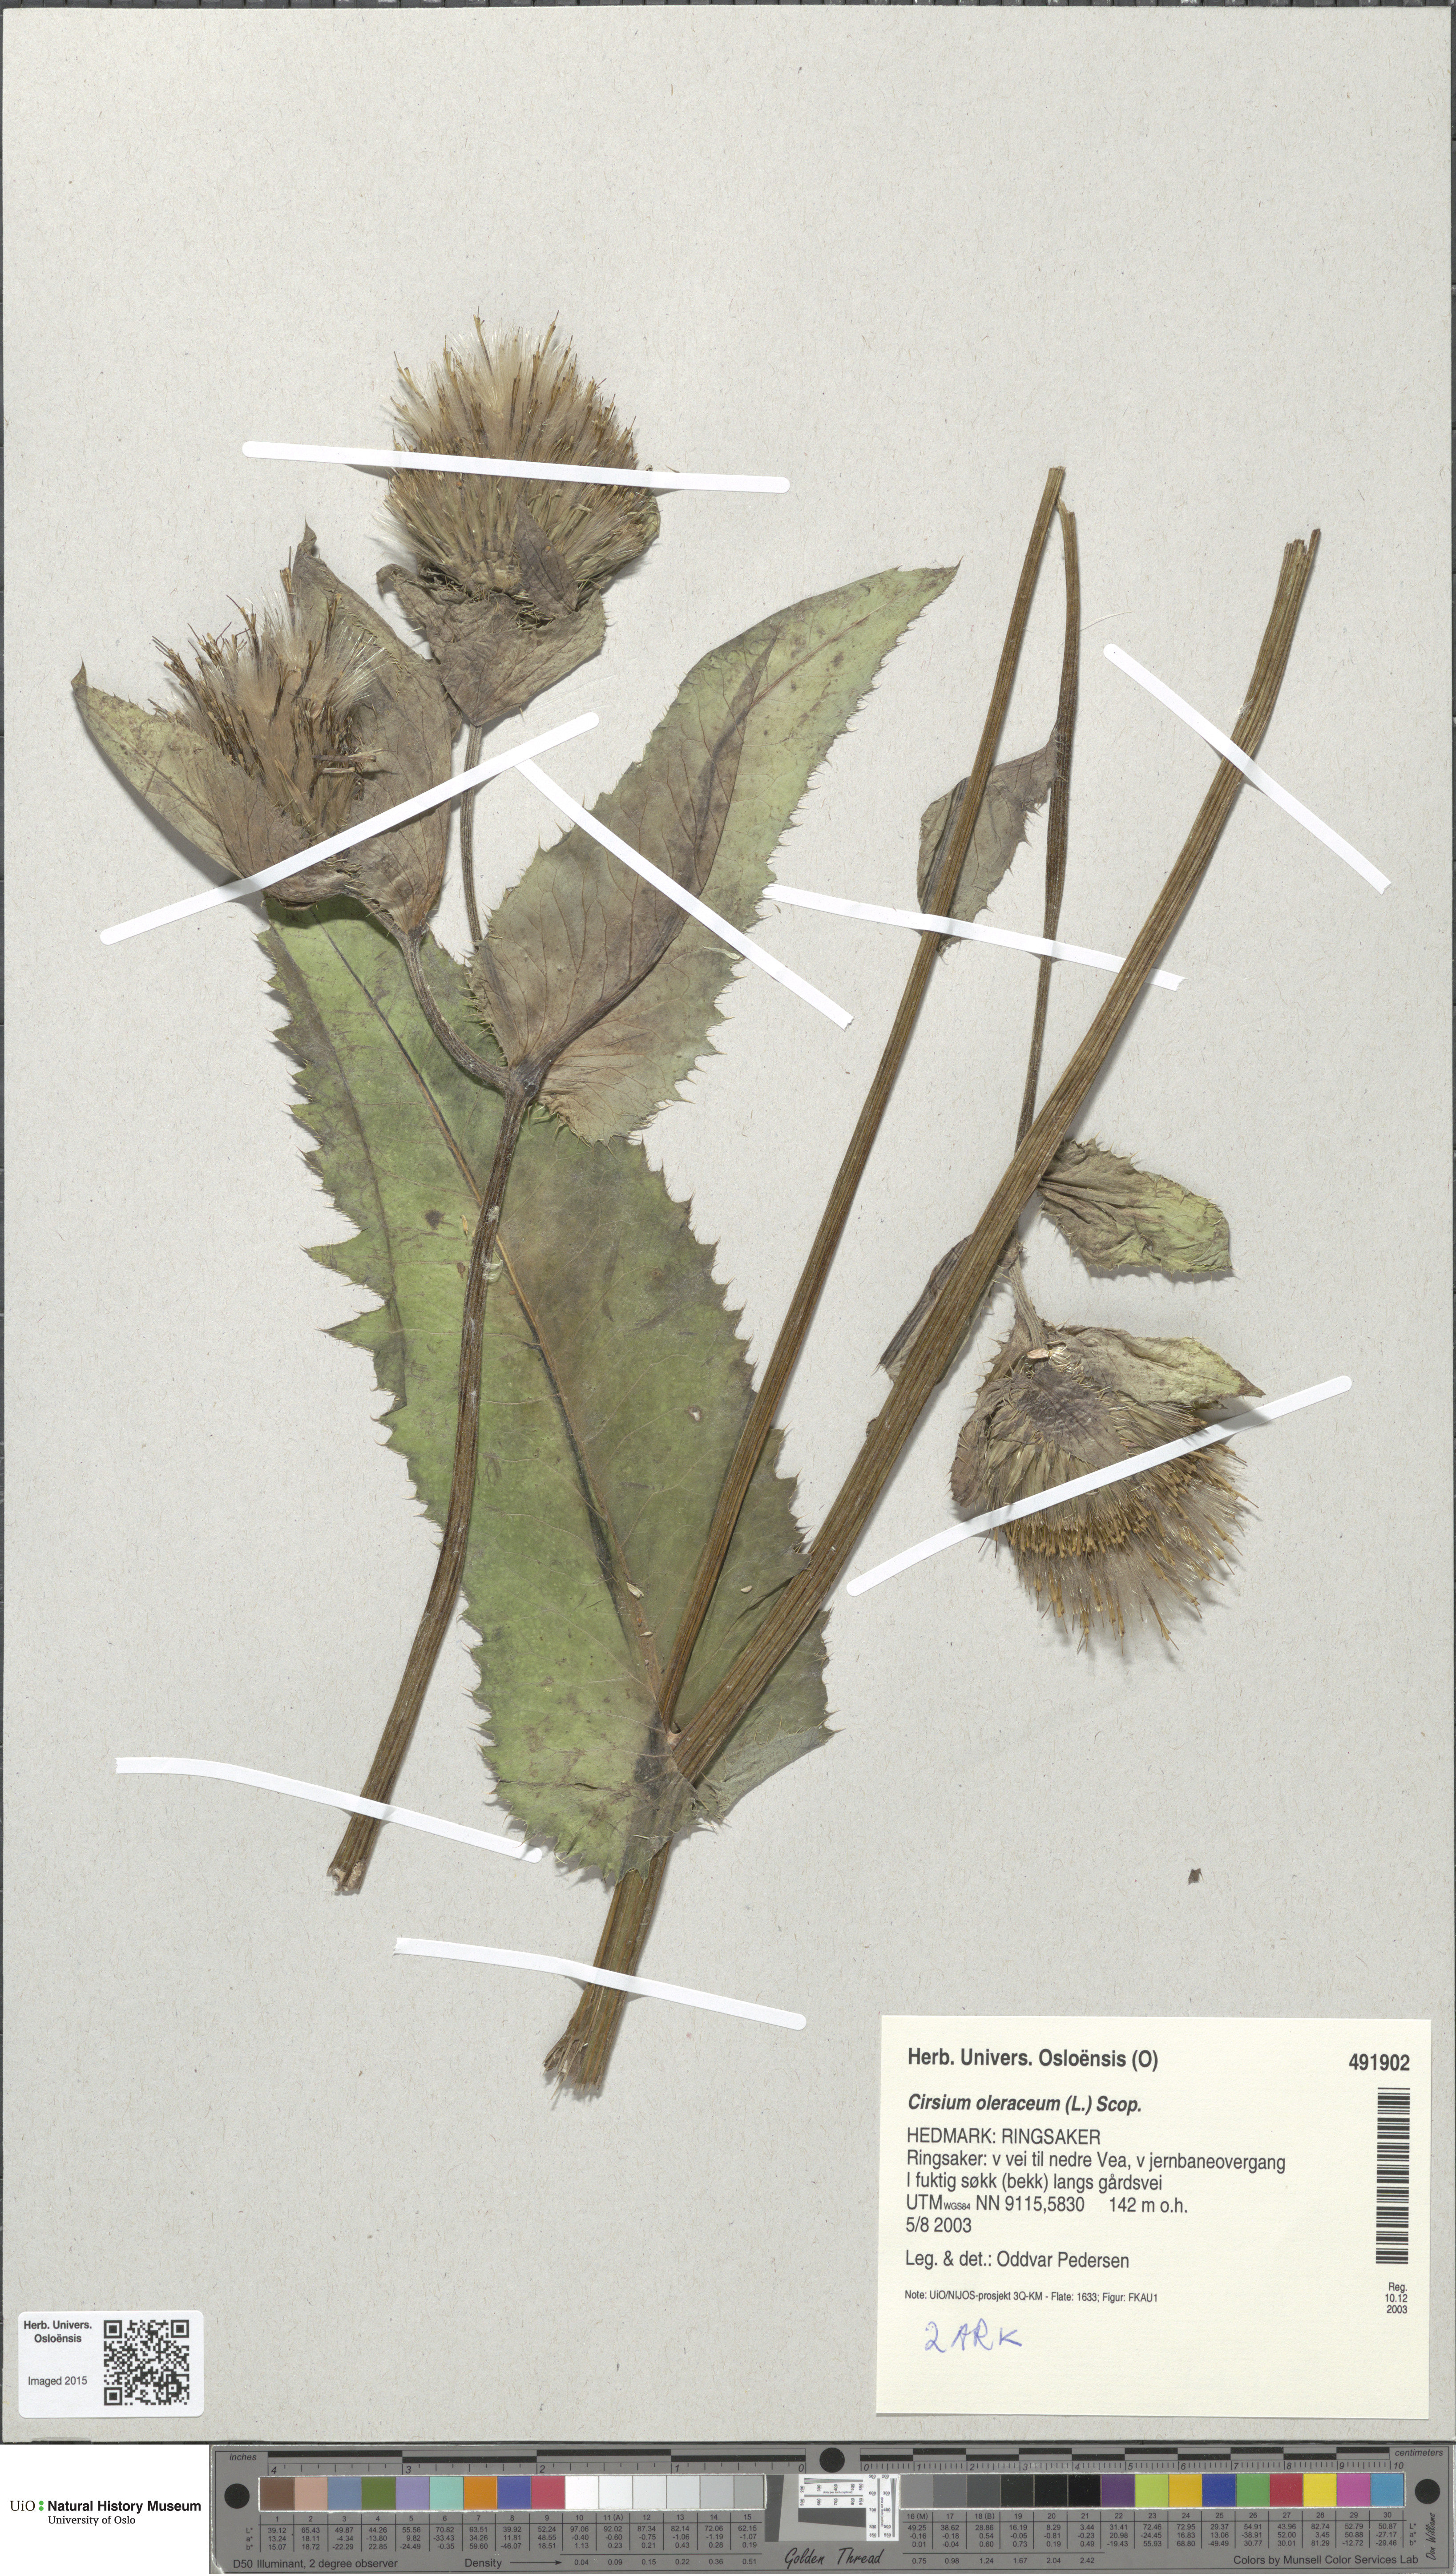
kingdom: Plantae
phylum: Tracheophyta
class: Magnoliopsida
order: Asterales
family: Asteraceae
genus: Cirsium
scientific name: Cirsium oleraceum
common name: Cabbage thistle
